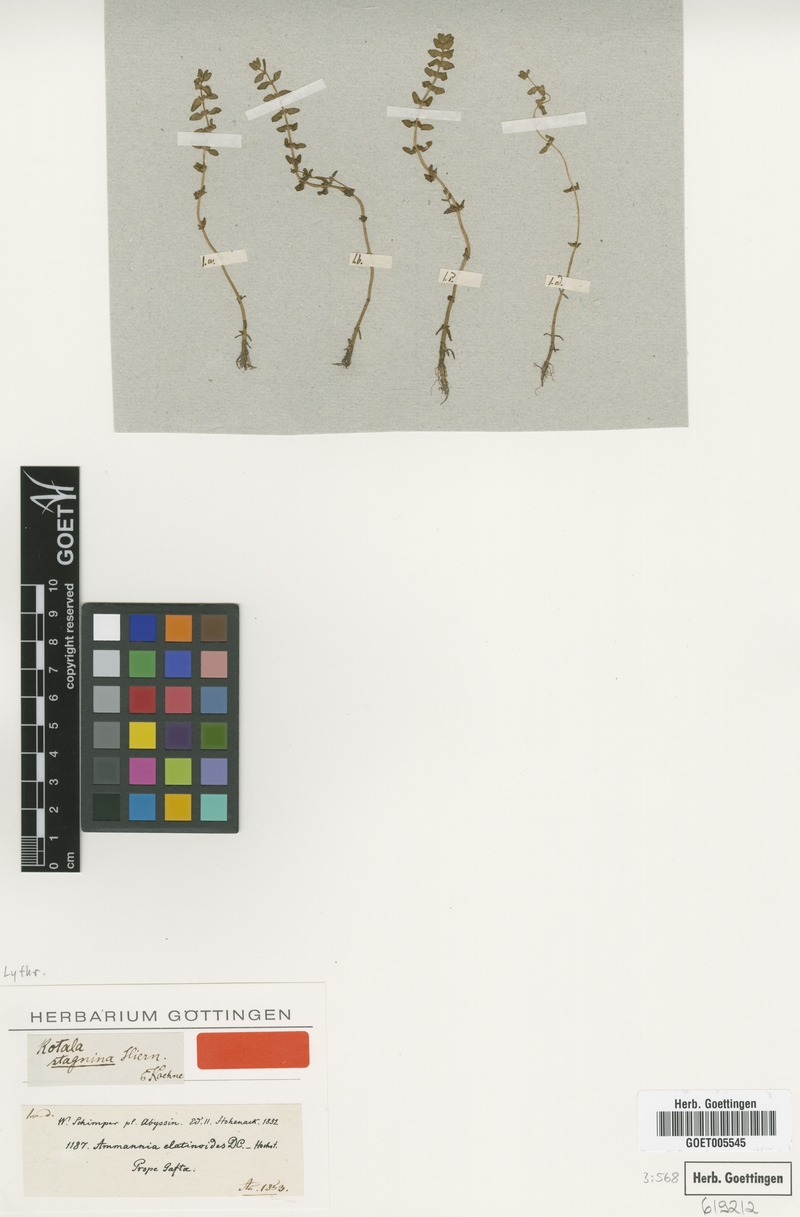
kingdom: Plantae
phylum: Tracheophyta
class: Magnoliopsida
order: Myrtales
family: Lythraceae
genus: Rotala
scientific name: Rotala stagnina
